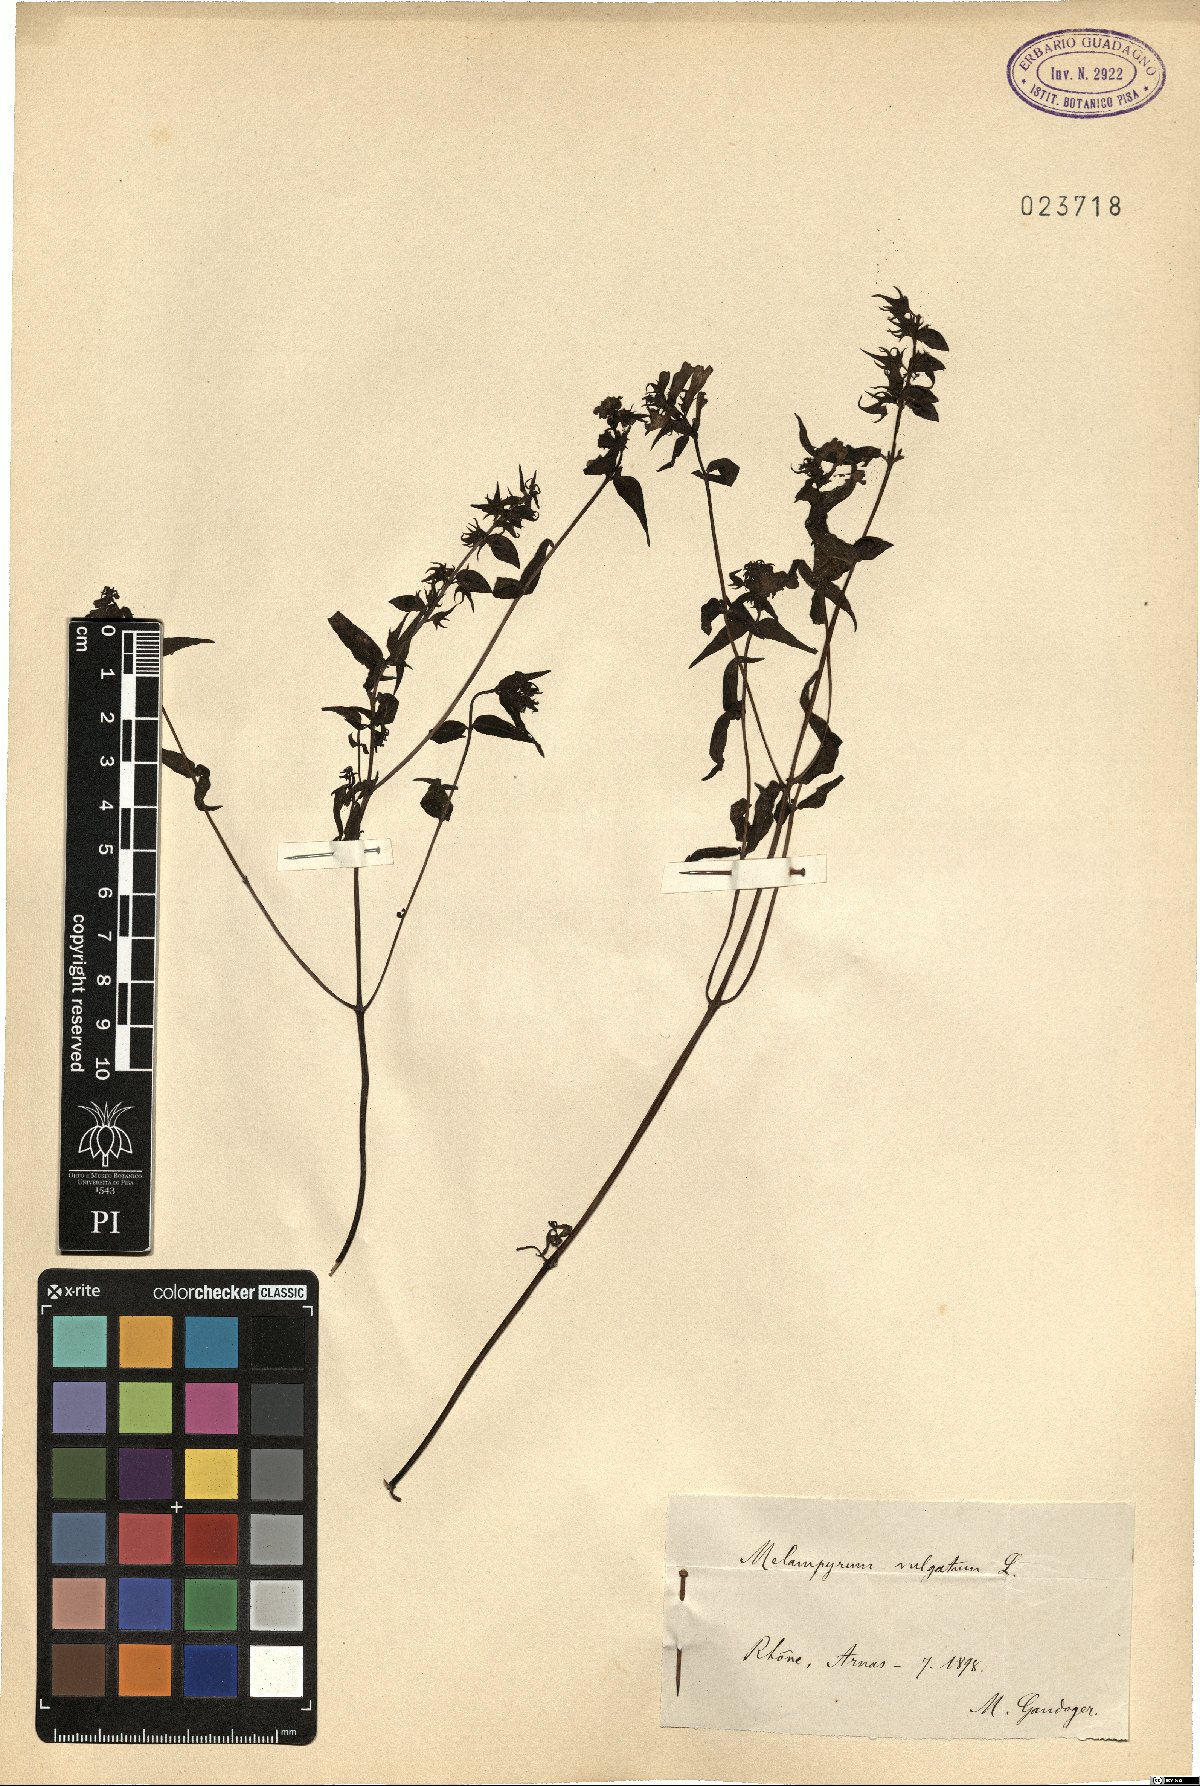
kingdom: Plantae
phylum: Tracheophyta
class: Magnoliopsida
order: Lamiales
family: Orobanchaceae
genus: Melampyrum
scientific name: Melampyrum pratense
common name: Common cow-wheat
